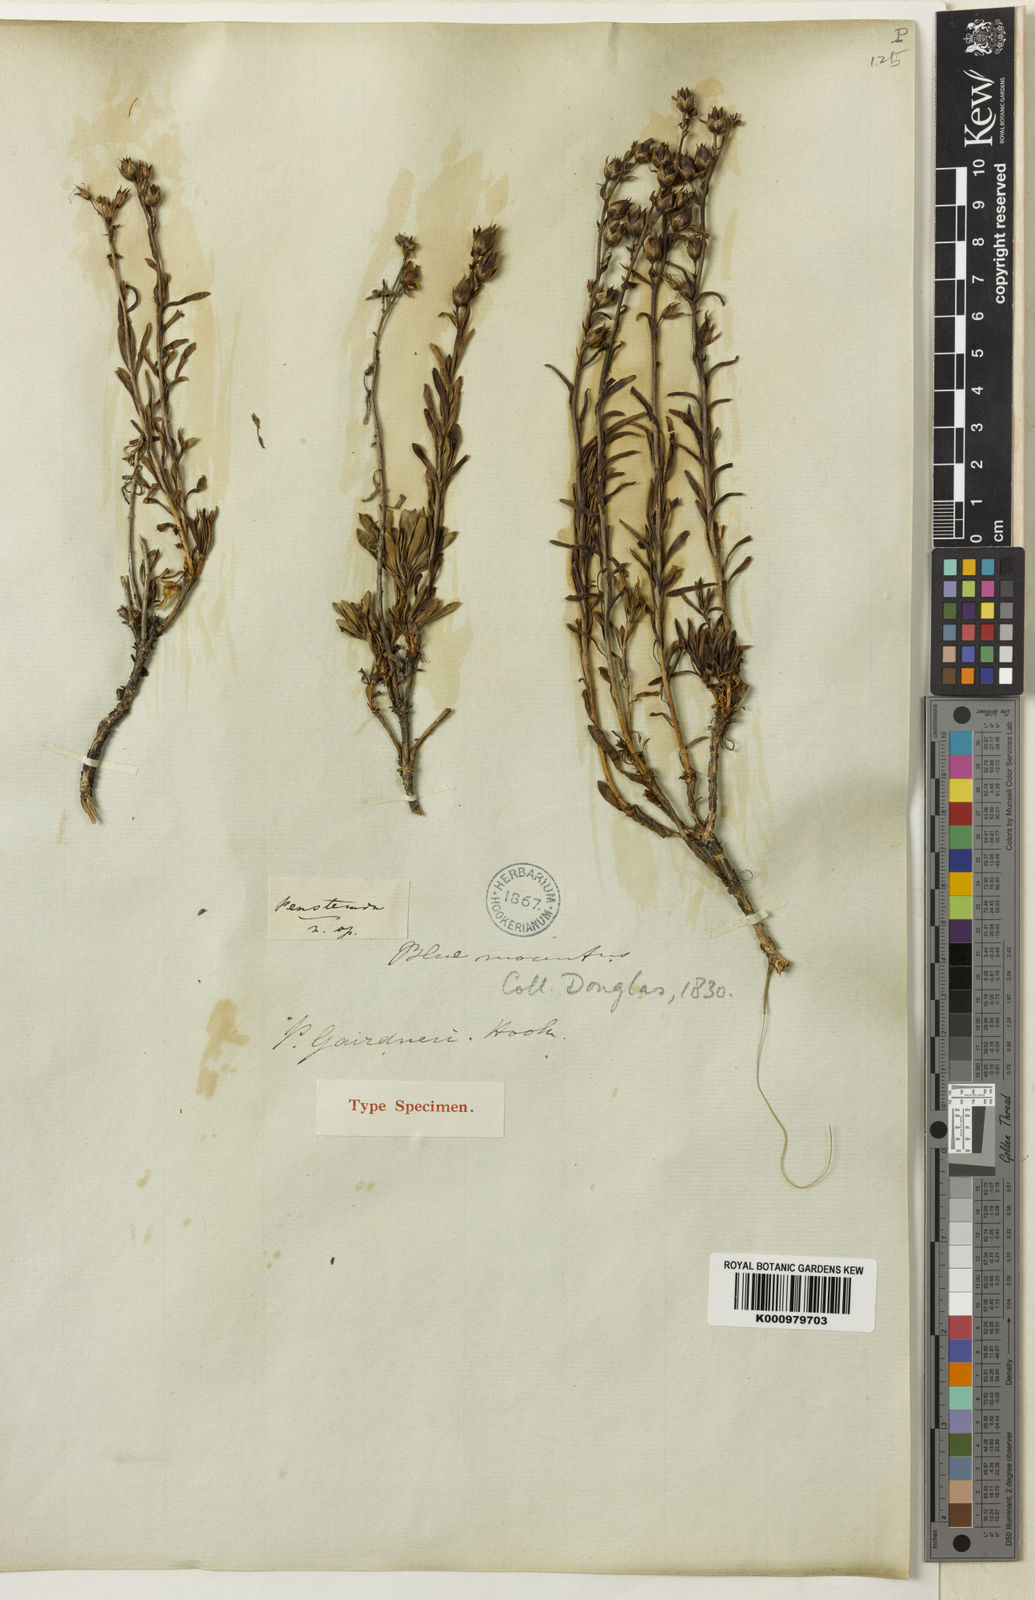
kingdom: Plantae
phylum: Tracheophyta
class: Magnoliopsida
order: Lamiales
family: Plantaginaceae
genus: Penstemon
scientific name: Penstemon gairdneri
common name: Gairdner's penstemon
